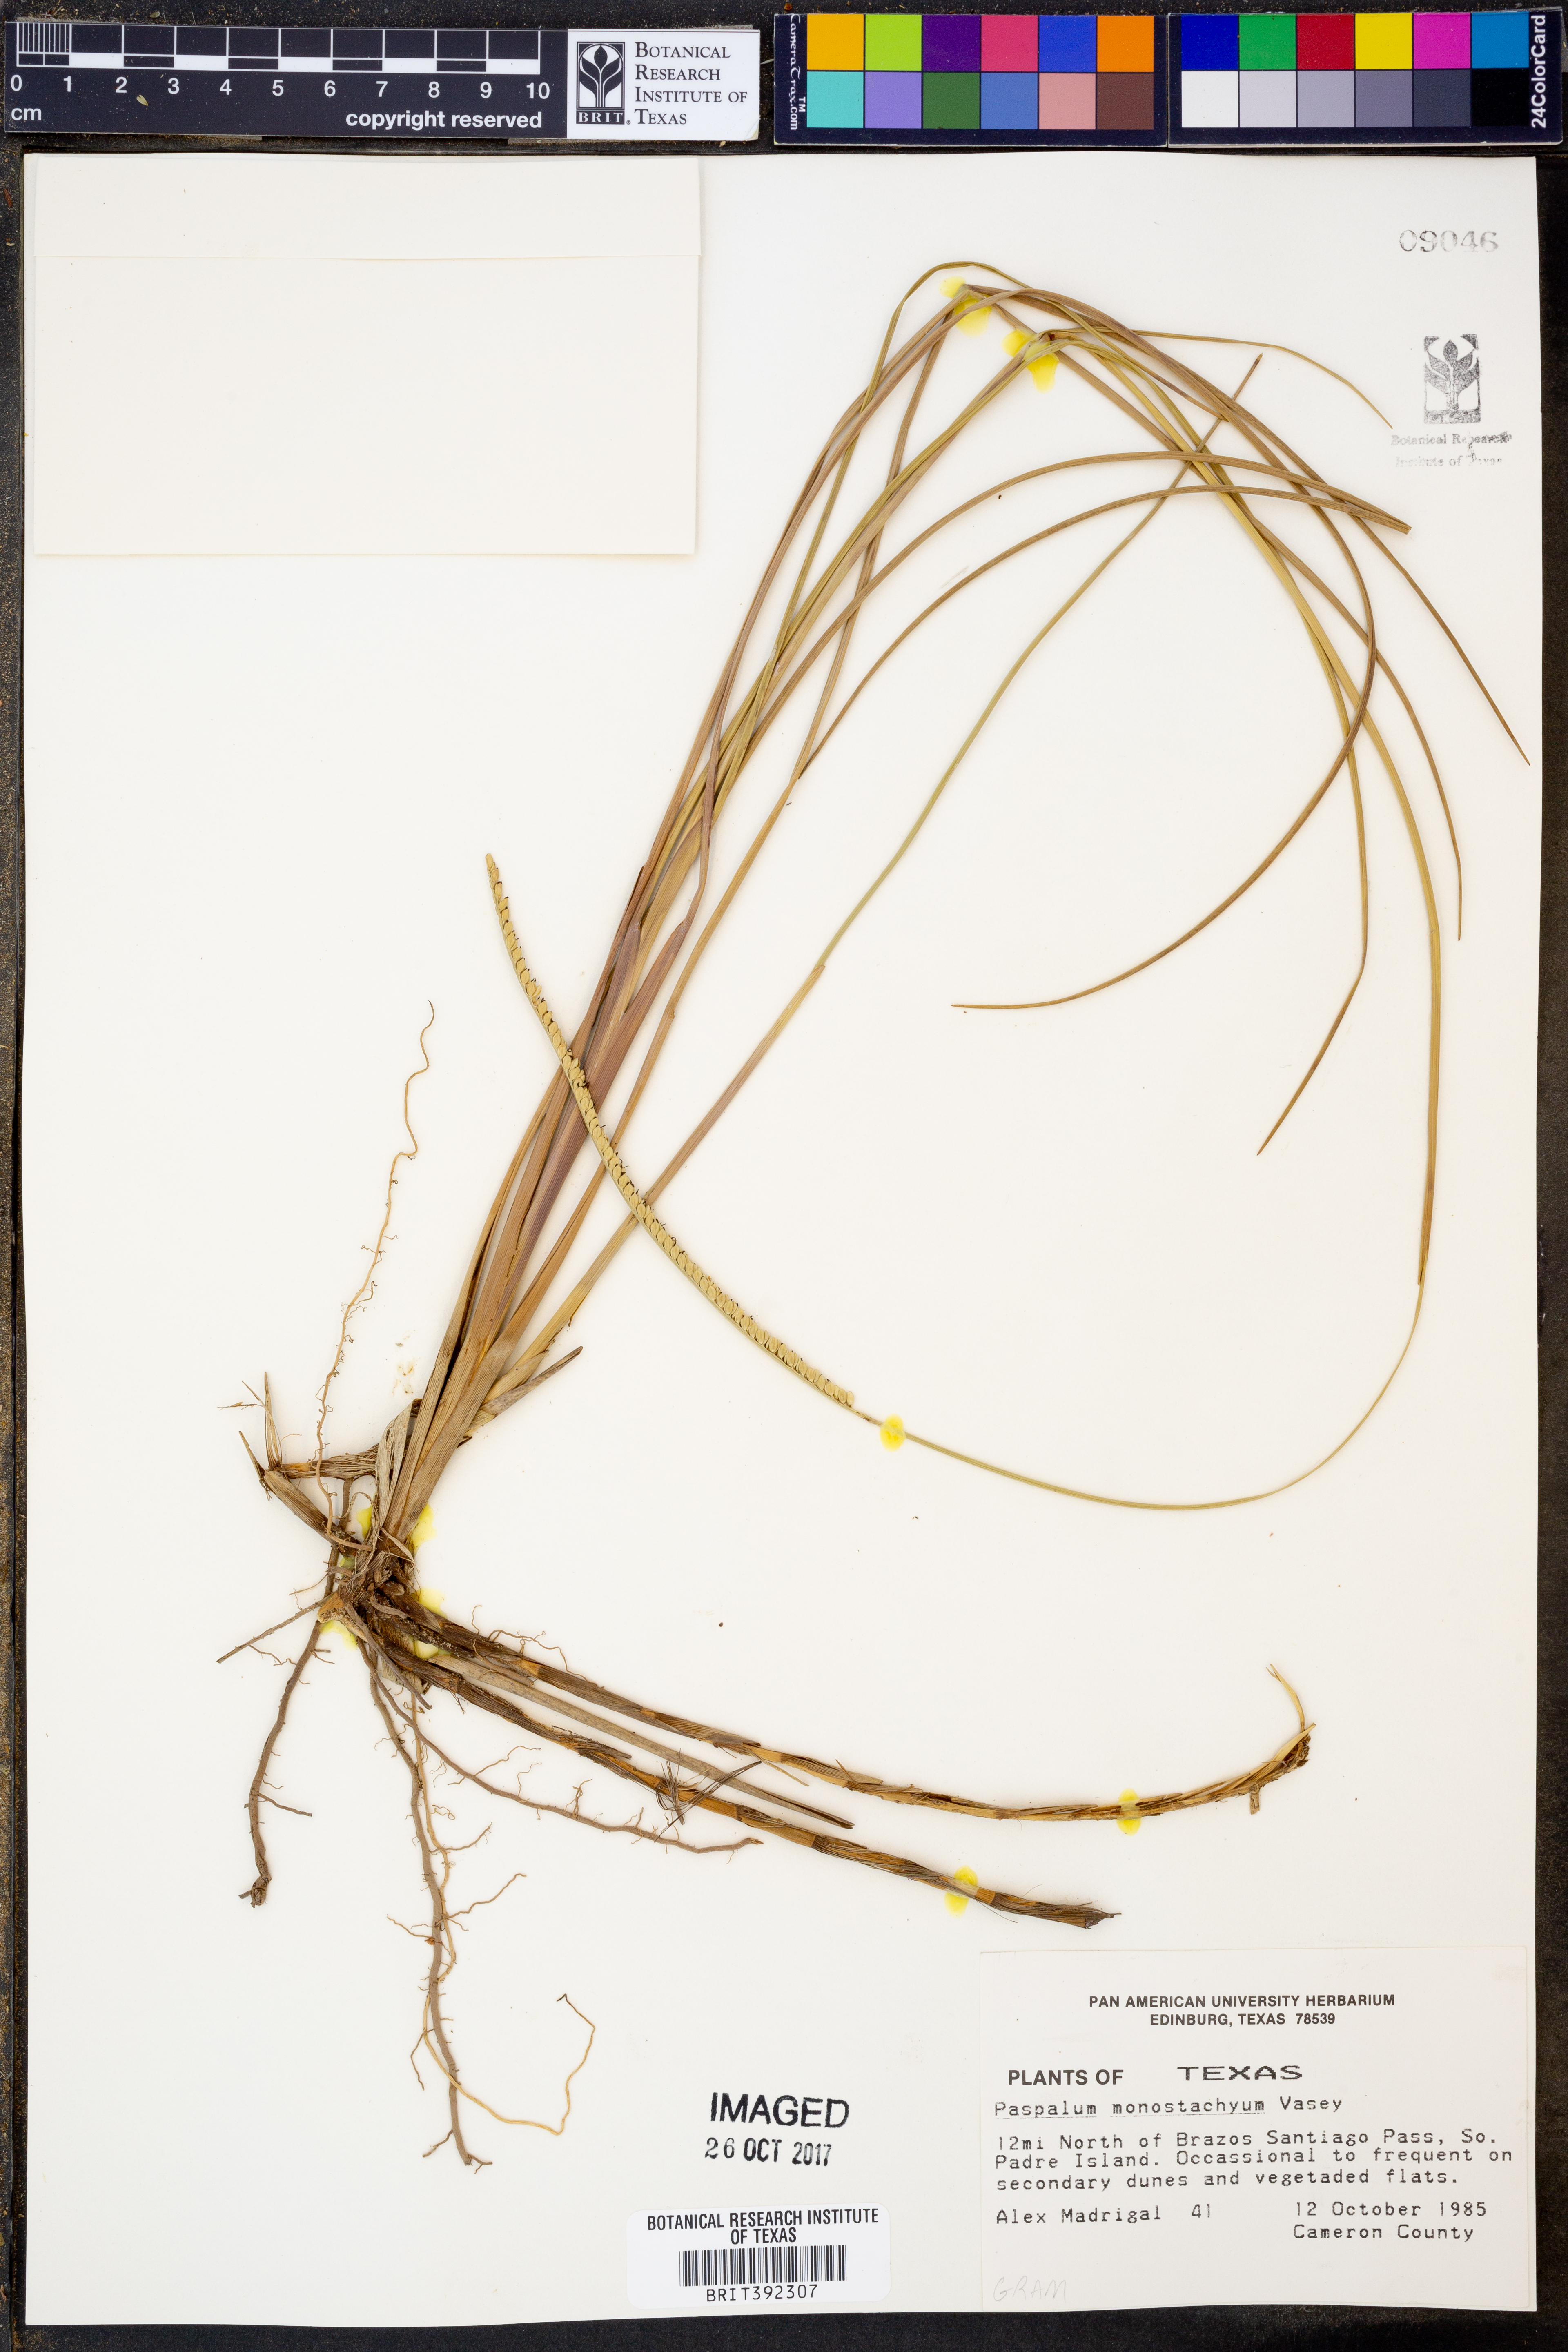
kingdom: Plantae
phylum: Tracheophyta
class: Liliopsida
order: Poales
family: Poaceae
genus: Paspalum
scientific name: Paspalum monostachyum
